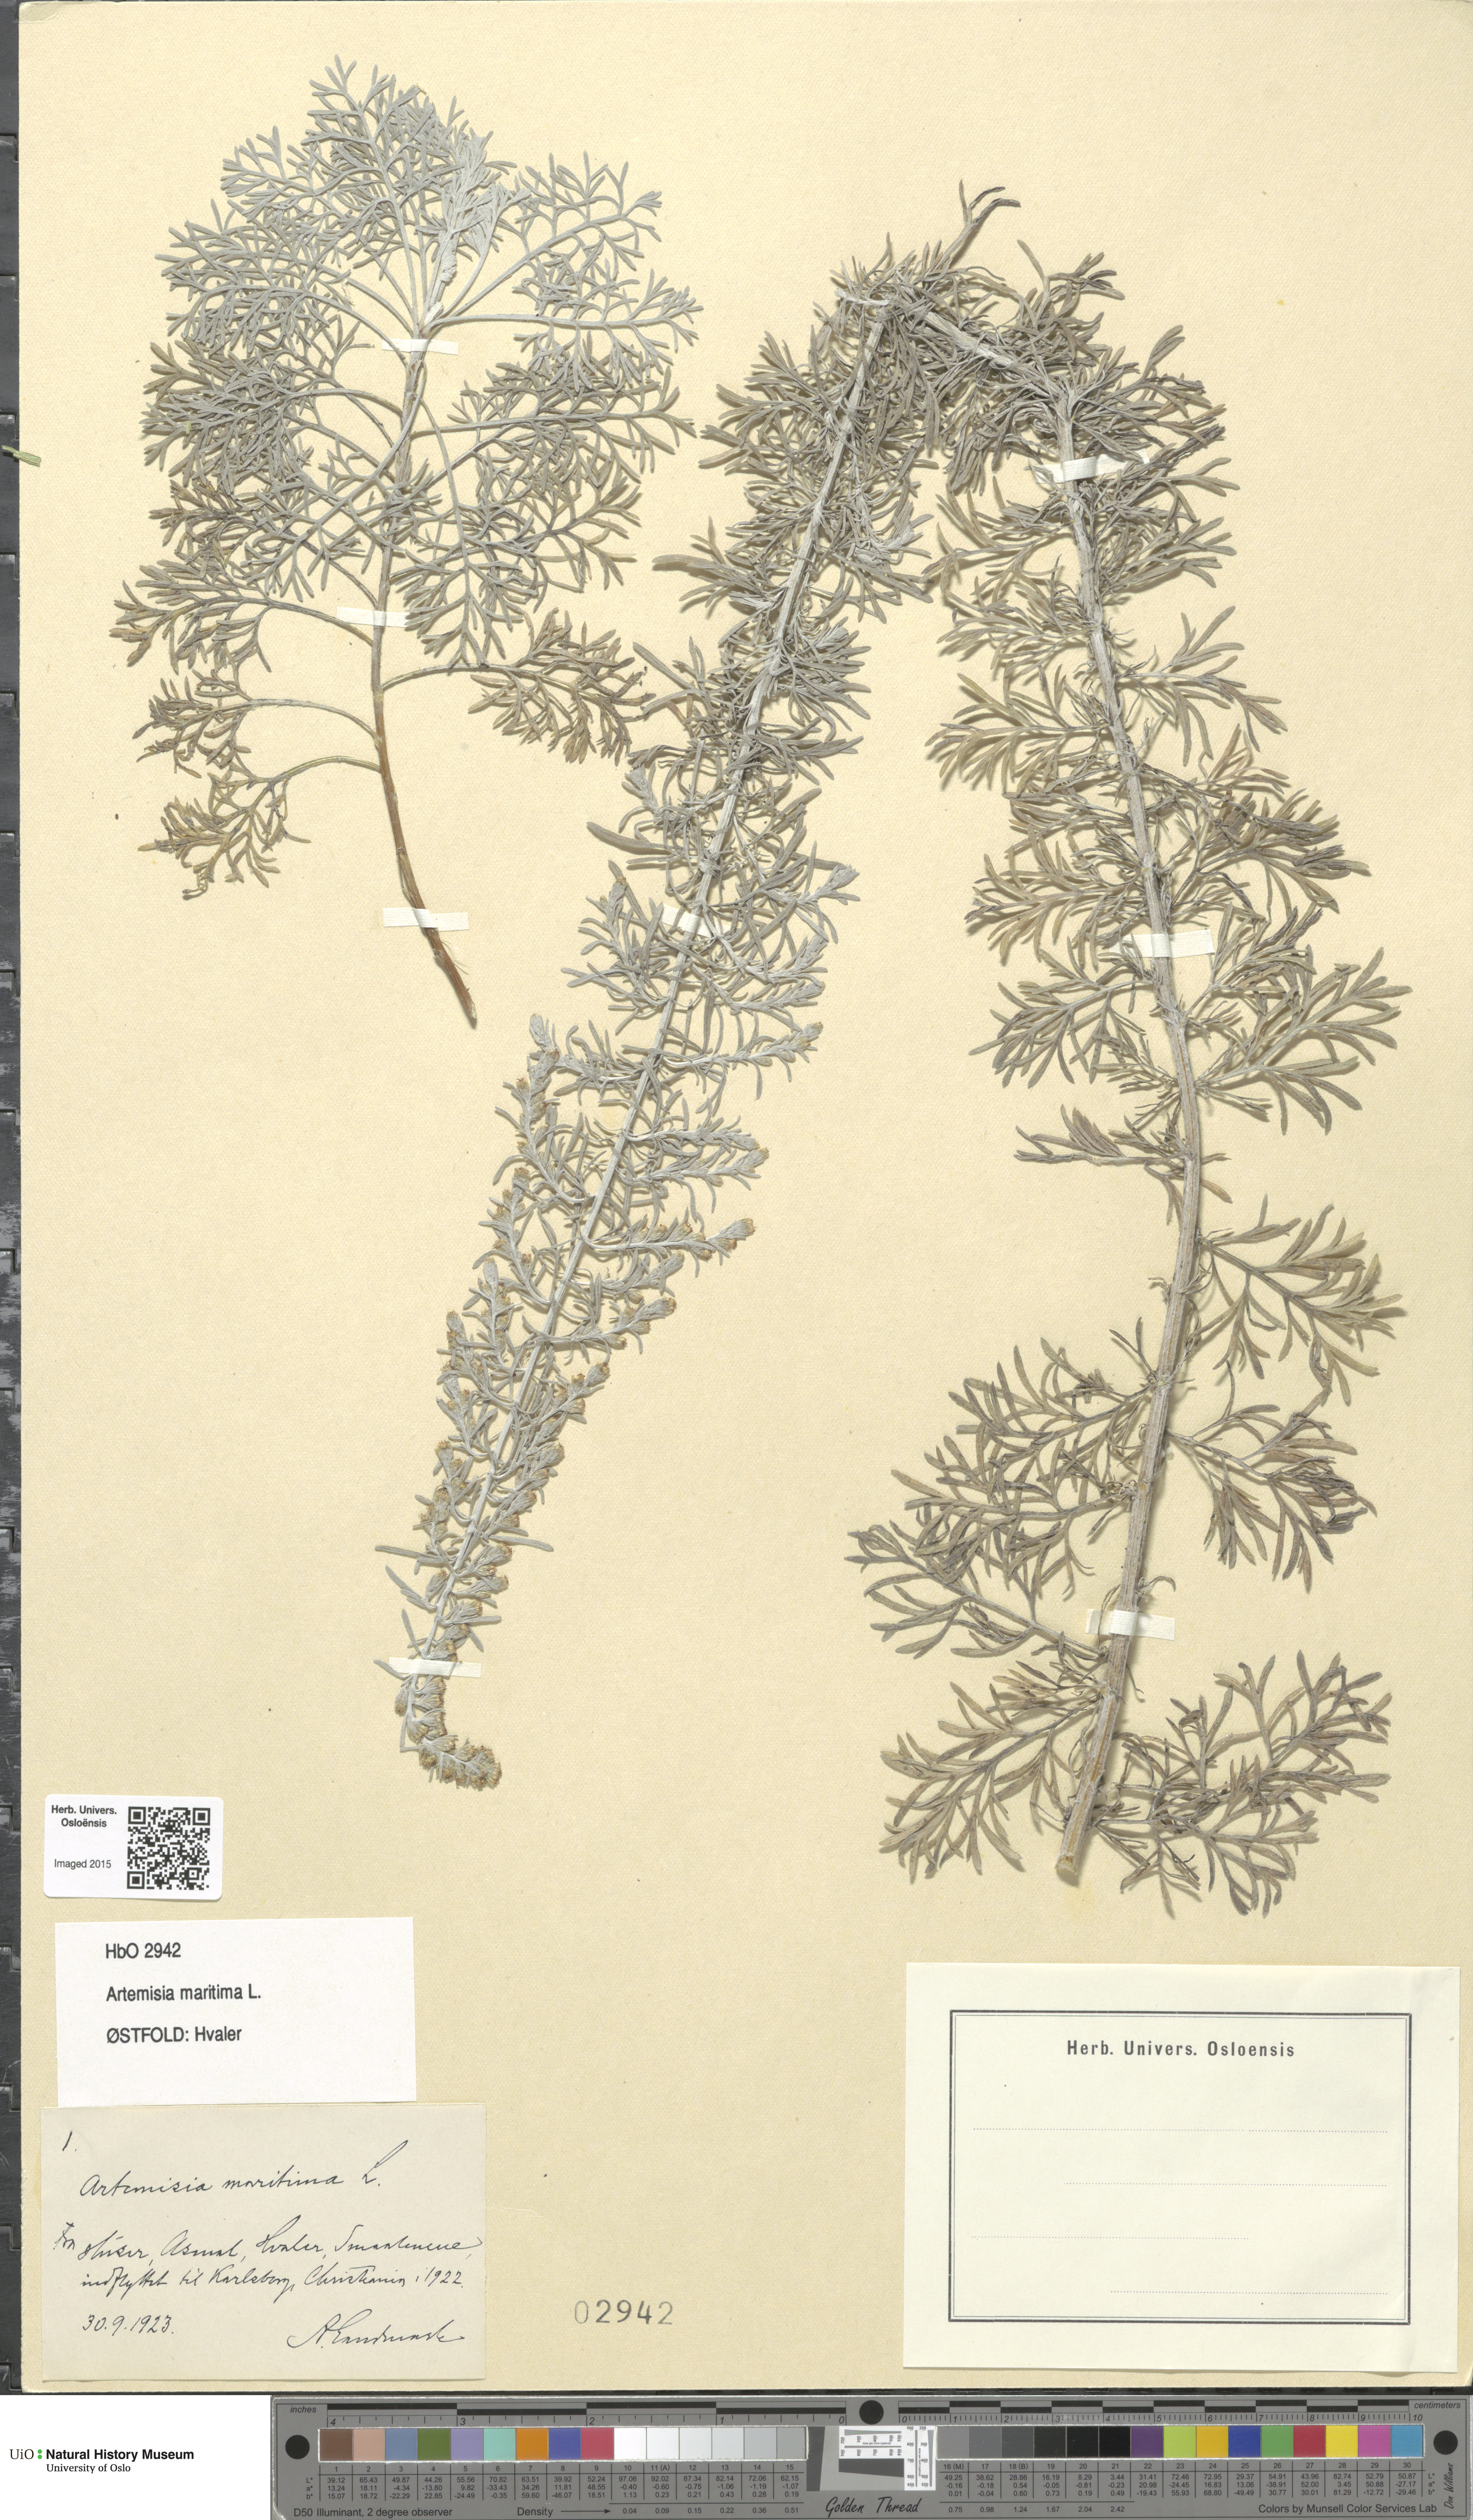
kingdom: Plantae
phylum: Tracheophyta
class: Magnoliopsida
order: Asterales
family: Asteraceae
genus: Artemisia
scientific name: Artemisia maritima
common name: Wormseed
